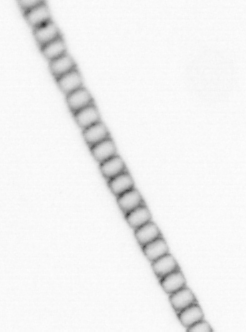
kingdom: Chromista
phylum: Ochrophyta
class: Bacillariophyceae
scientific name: Bacillariophyceae
